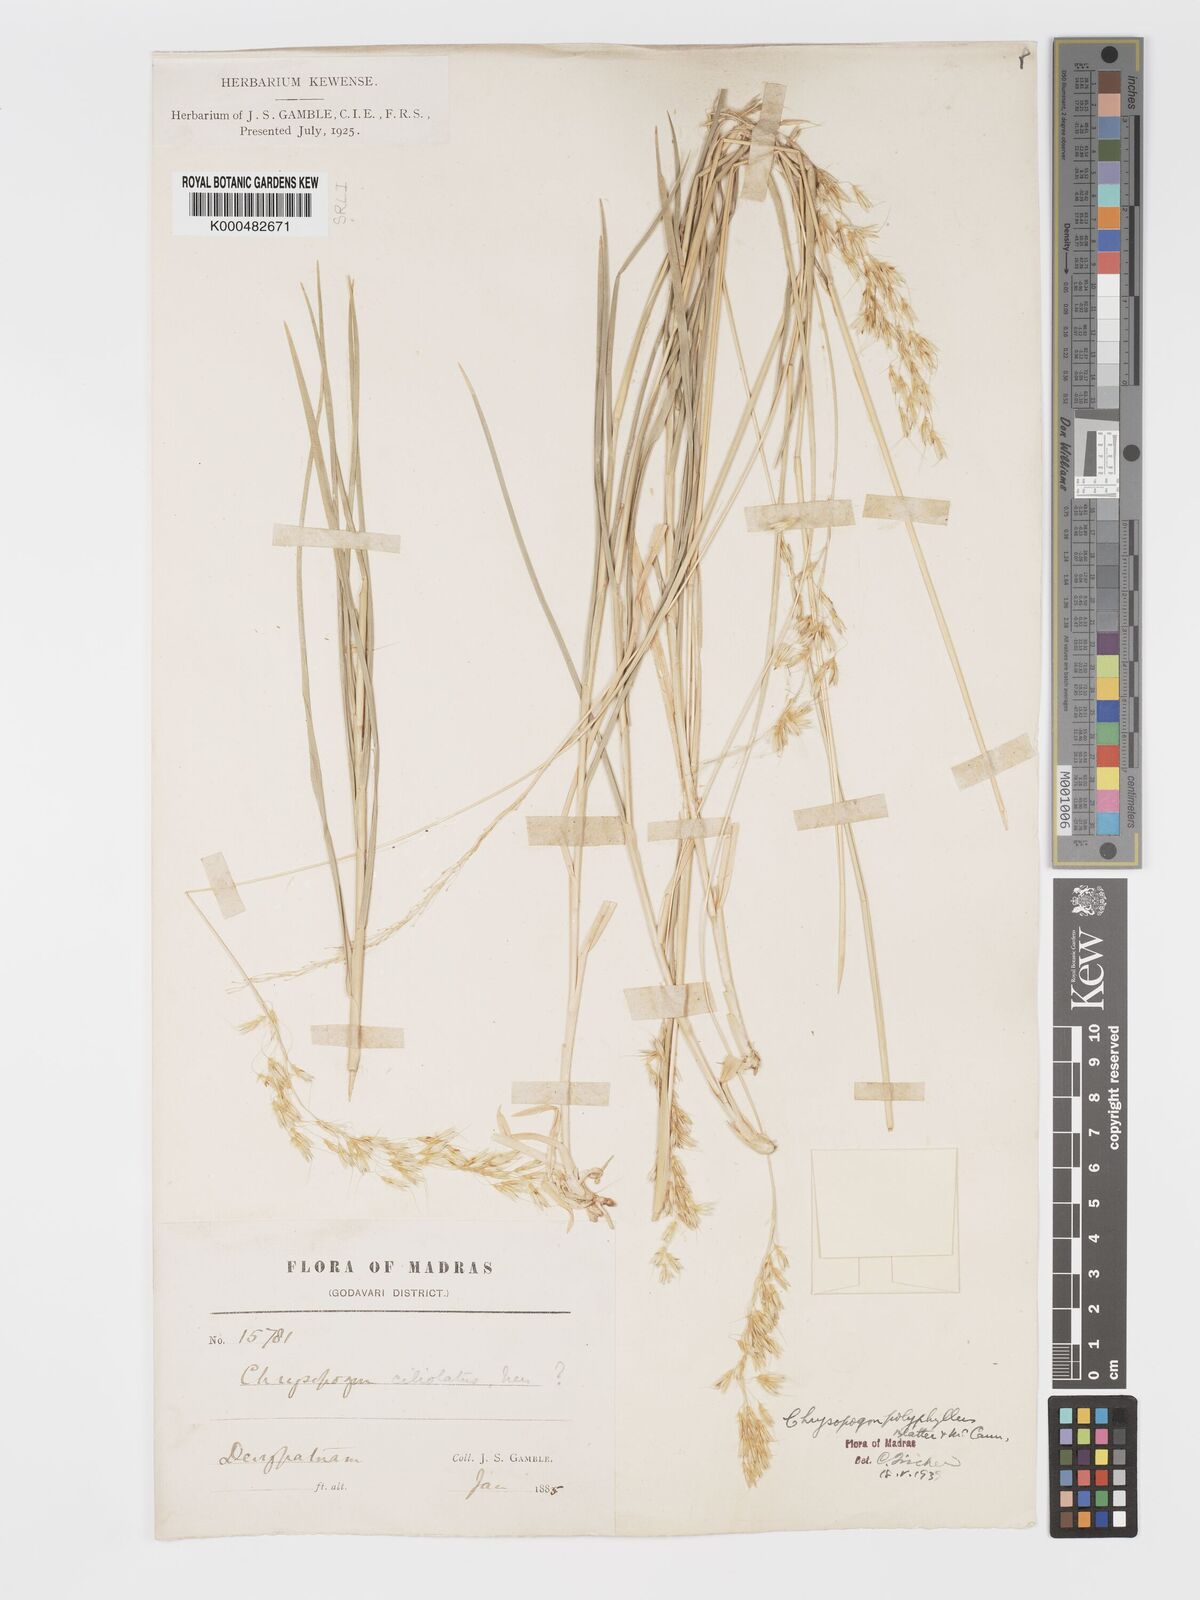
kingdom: Plantae
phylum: Tracheophyta
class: Liliopsida
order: Poales
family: Poaceae
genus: Chrysopogon
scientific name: Chrysopogon polyphyllus
